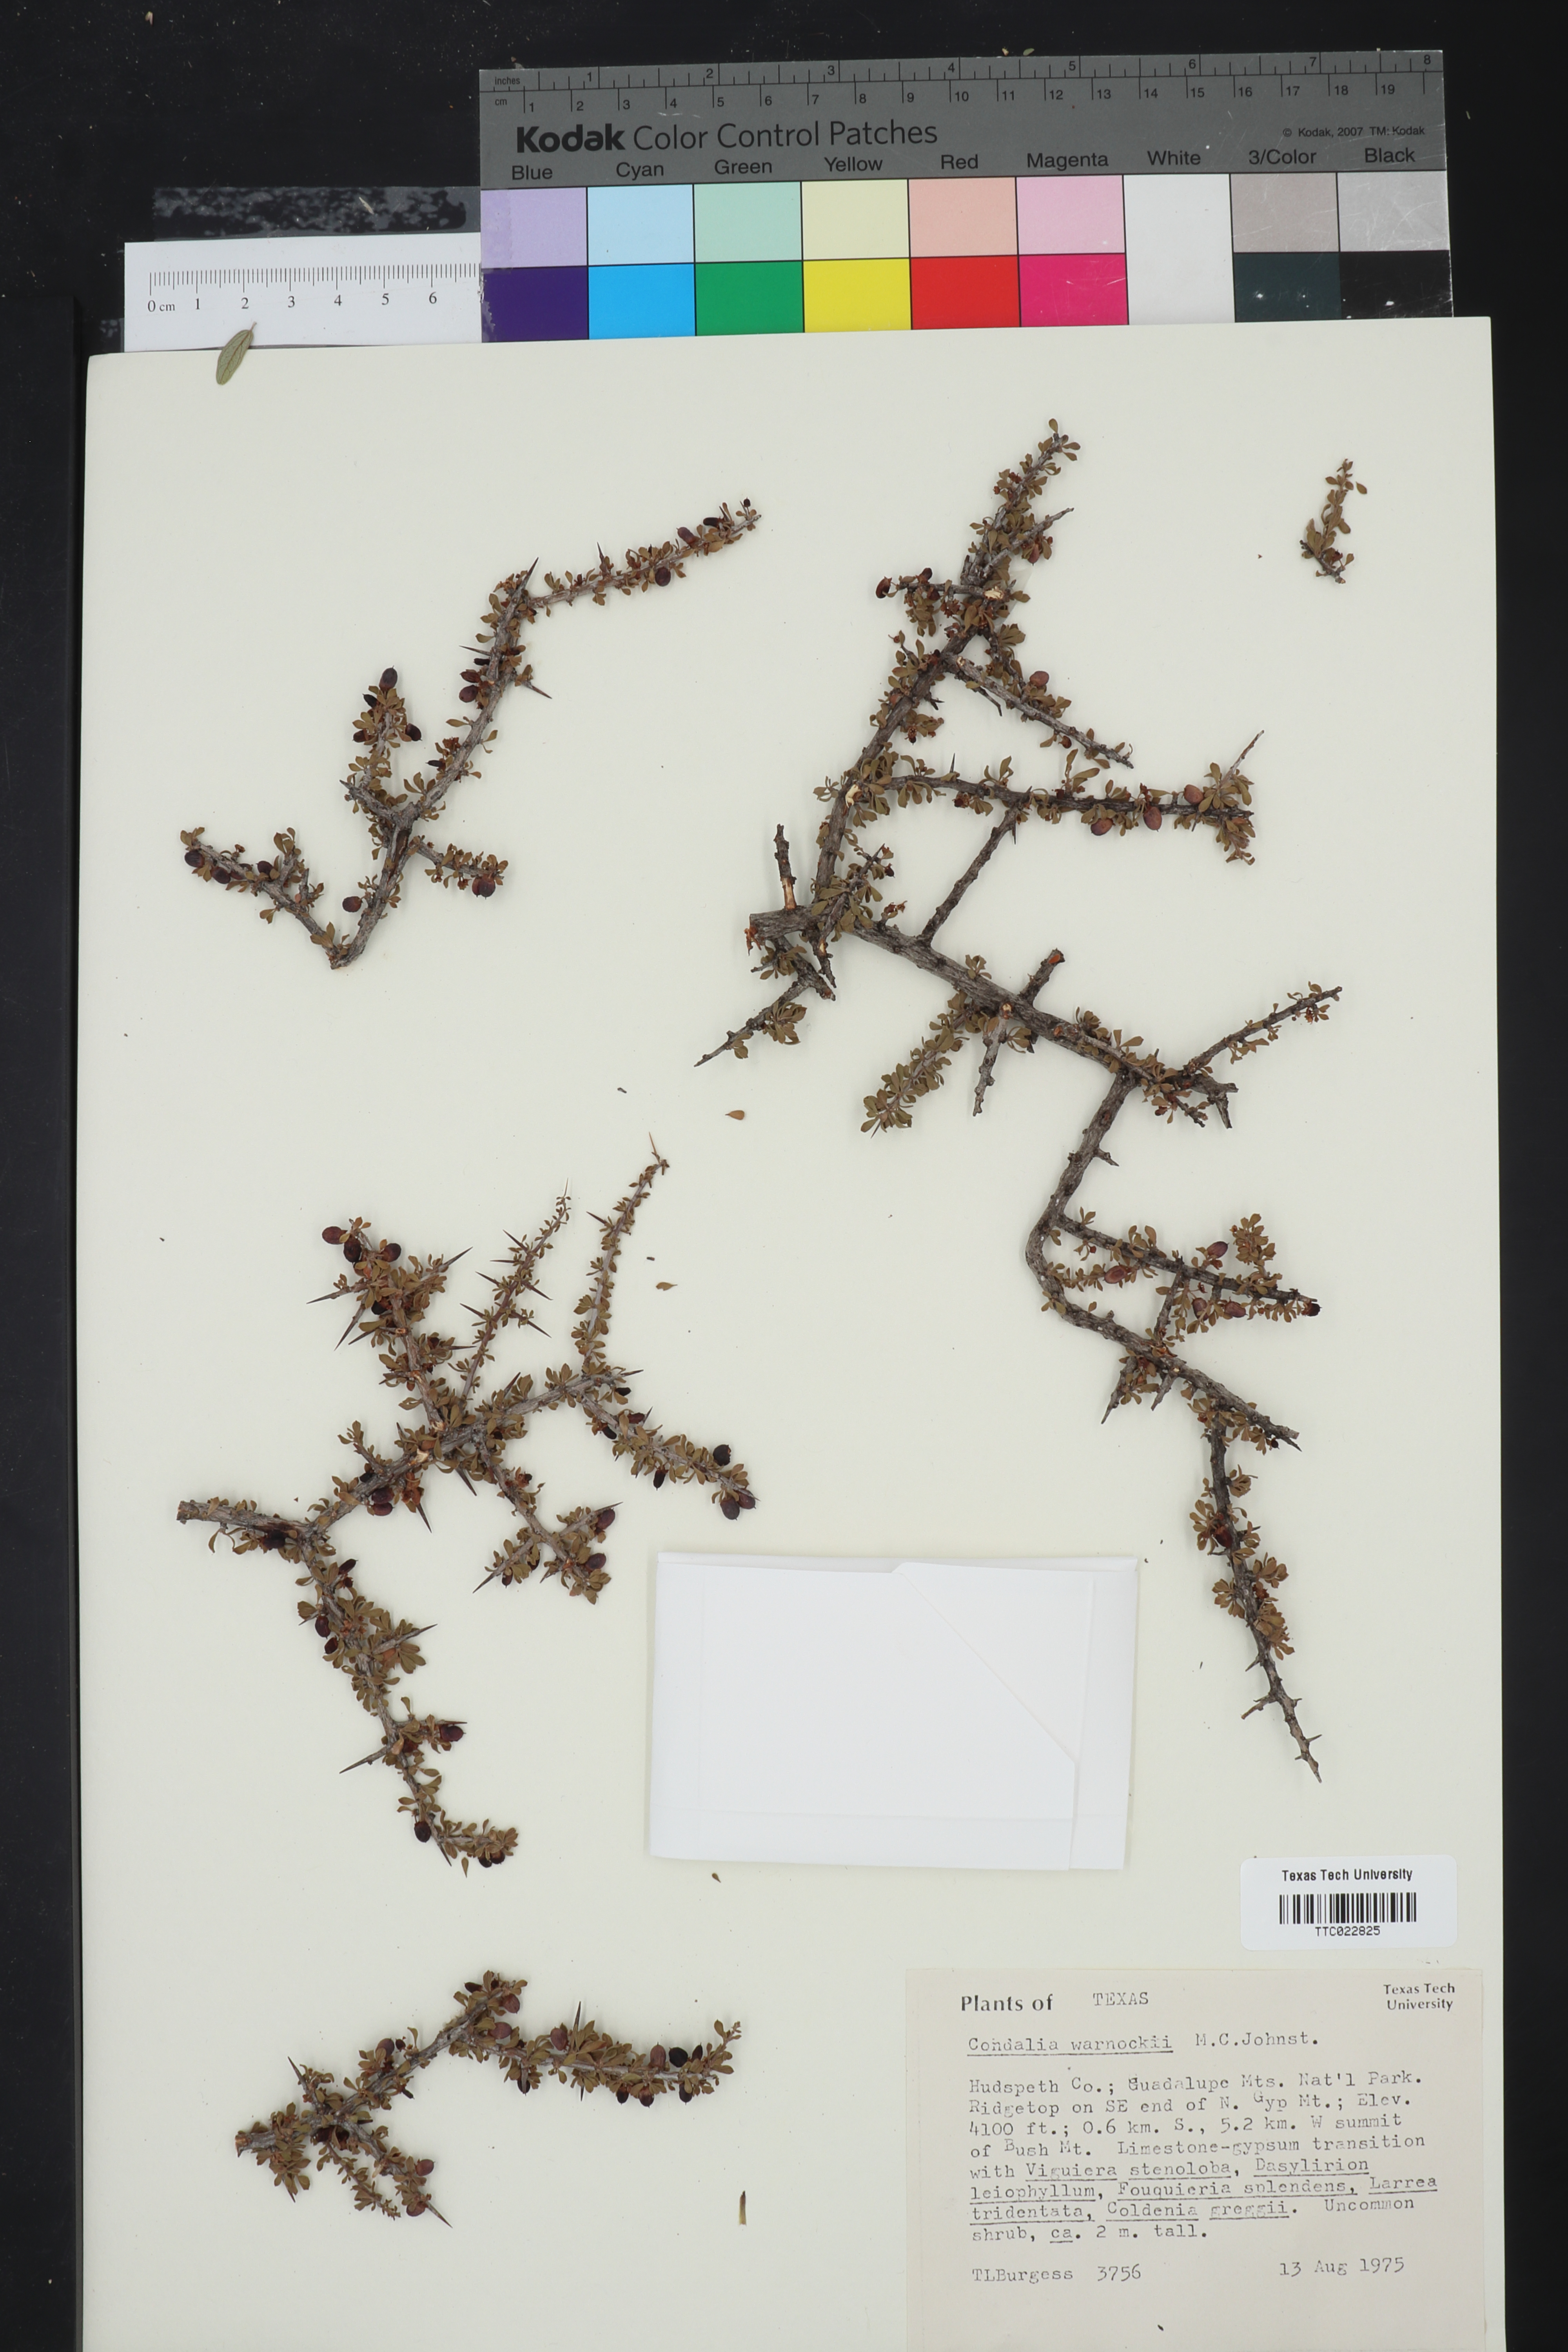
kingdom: Plantae
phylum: Tracheophyta
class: Magnoliopsida
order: Rosales
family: Rhamnaceae
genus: Condalia
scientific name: Condalia warnockii
